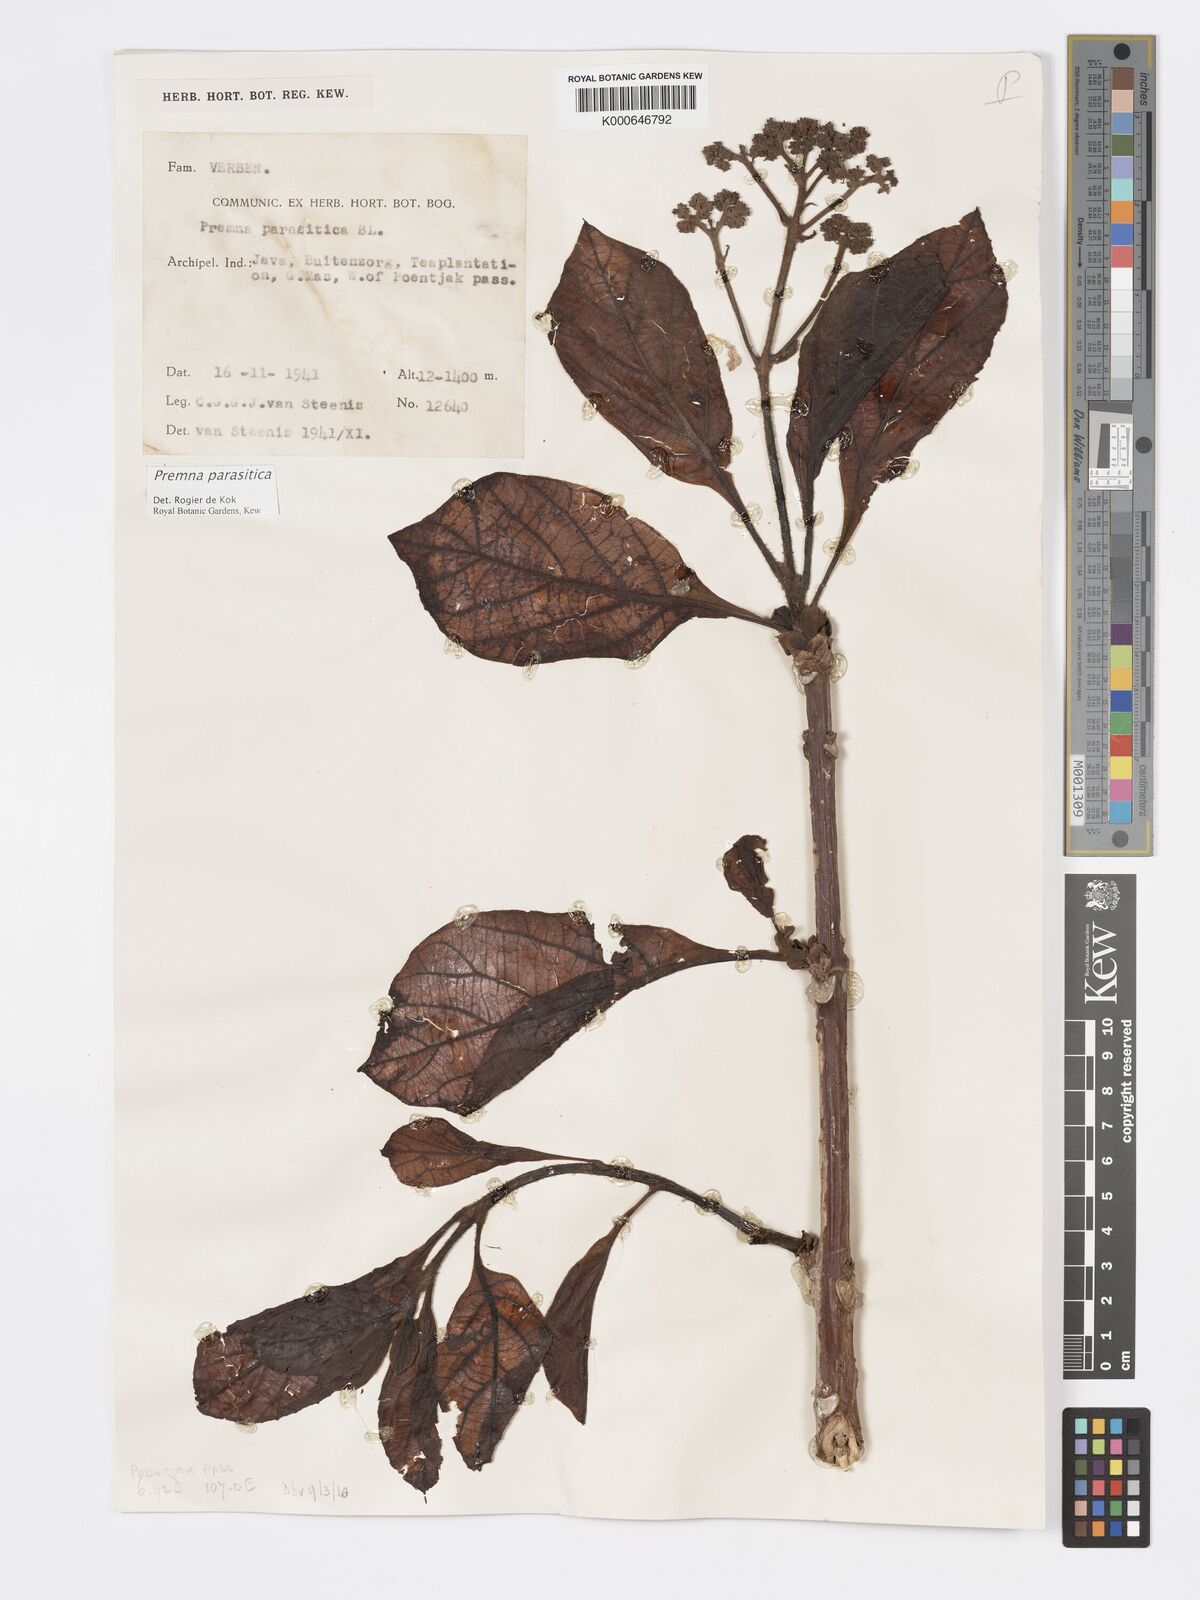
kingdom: Plantae
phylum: Tracheophyta
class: Magnoliopsida
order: Lamiales
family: Lamiaceae
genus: Premna
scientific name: Premna parasitica
